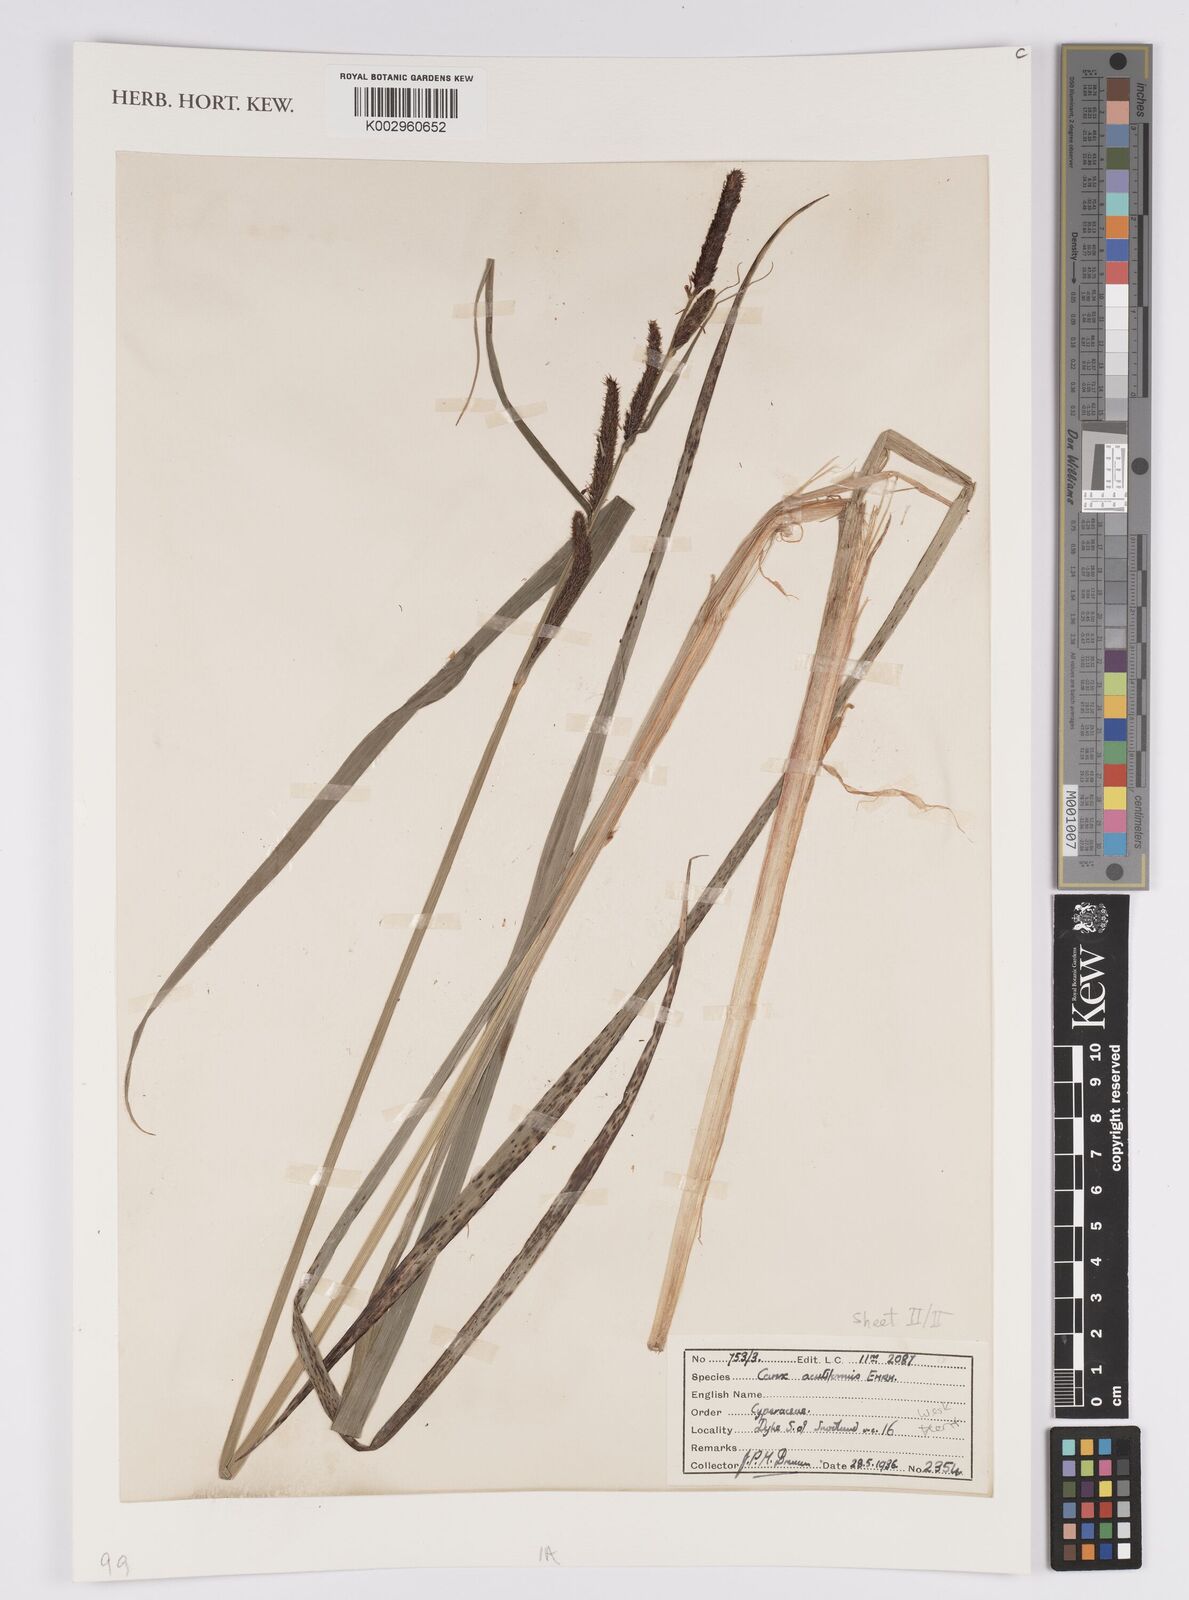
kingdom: Plantae
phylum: Tracheophyta
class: Liliopsida
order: Poales
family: Cyperaceae
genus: Carex
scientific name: Carex acutiformis
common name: Lesser pond-sedge
